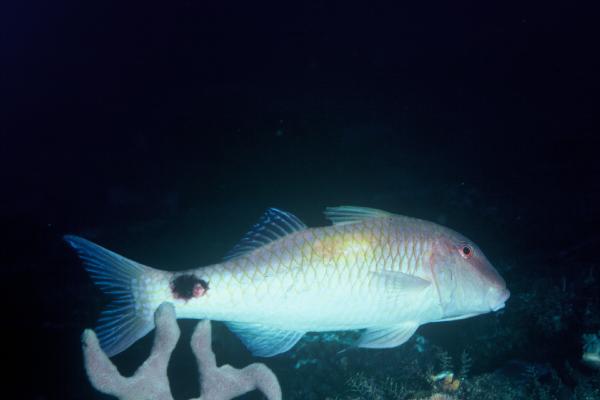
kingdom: Animalia
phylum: Chordata
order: Perciformes
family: Mullidae
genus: Parupeneus
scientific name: Parupeneus indicus
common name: Indian goatfish
